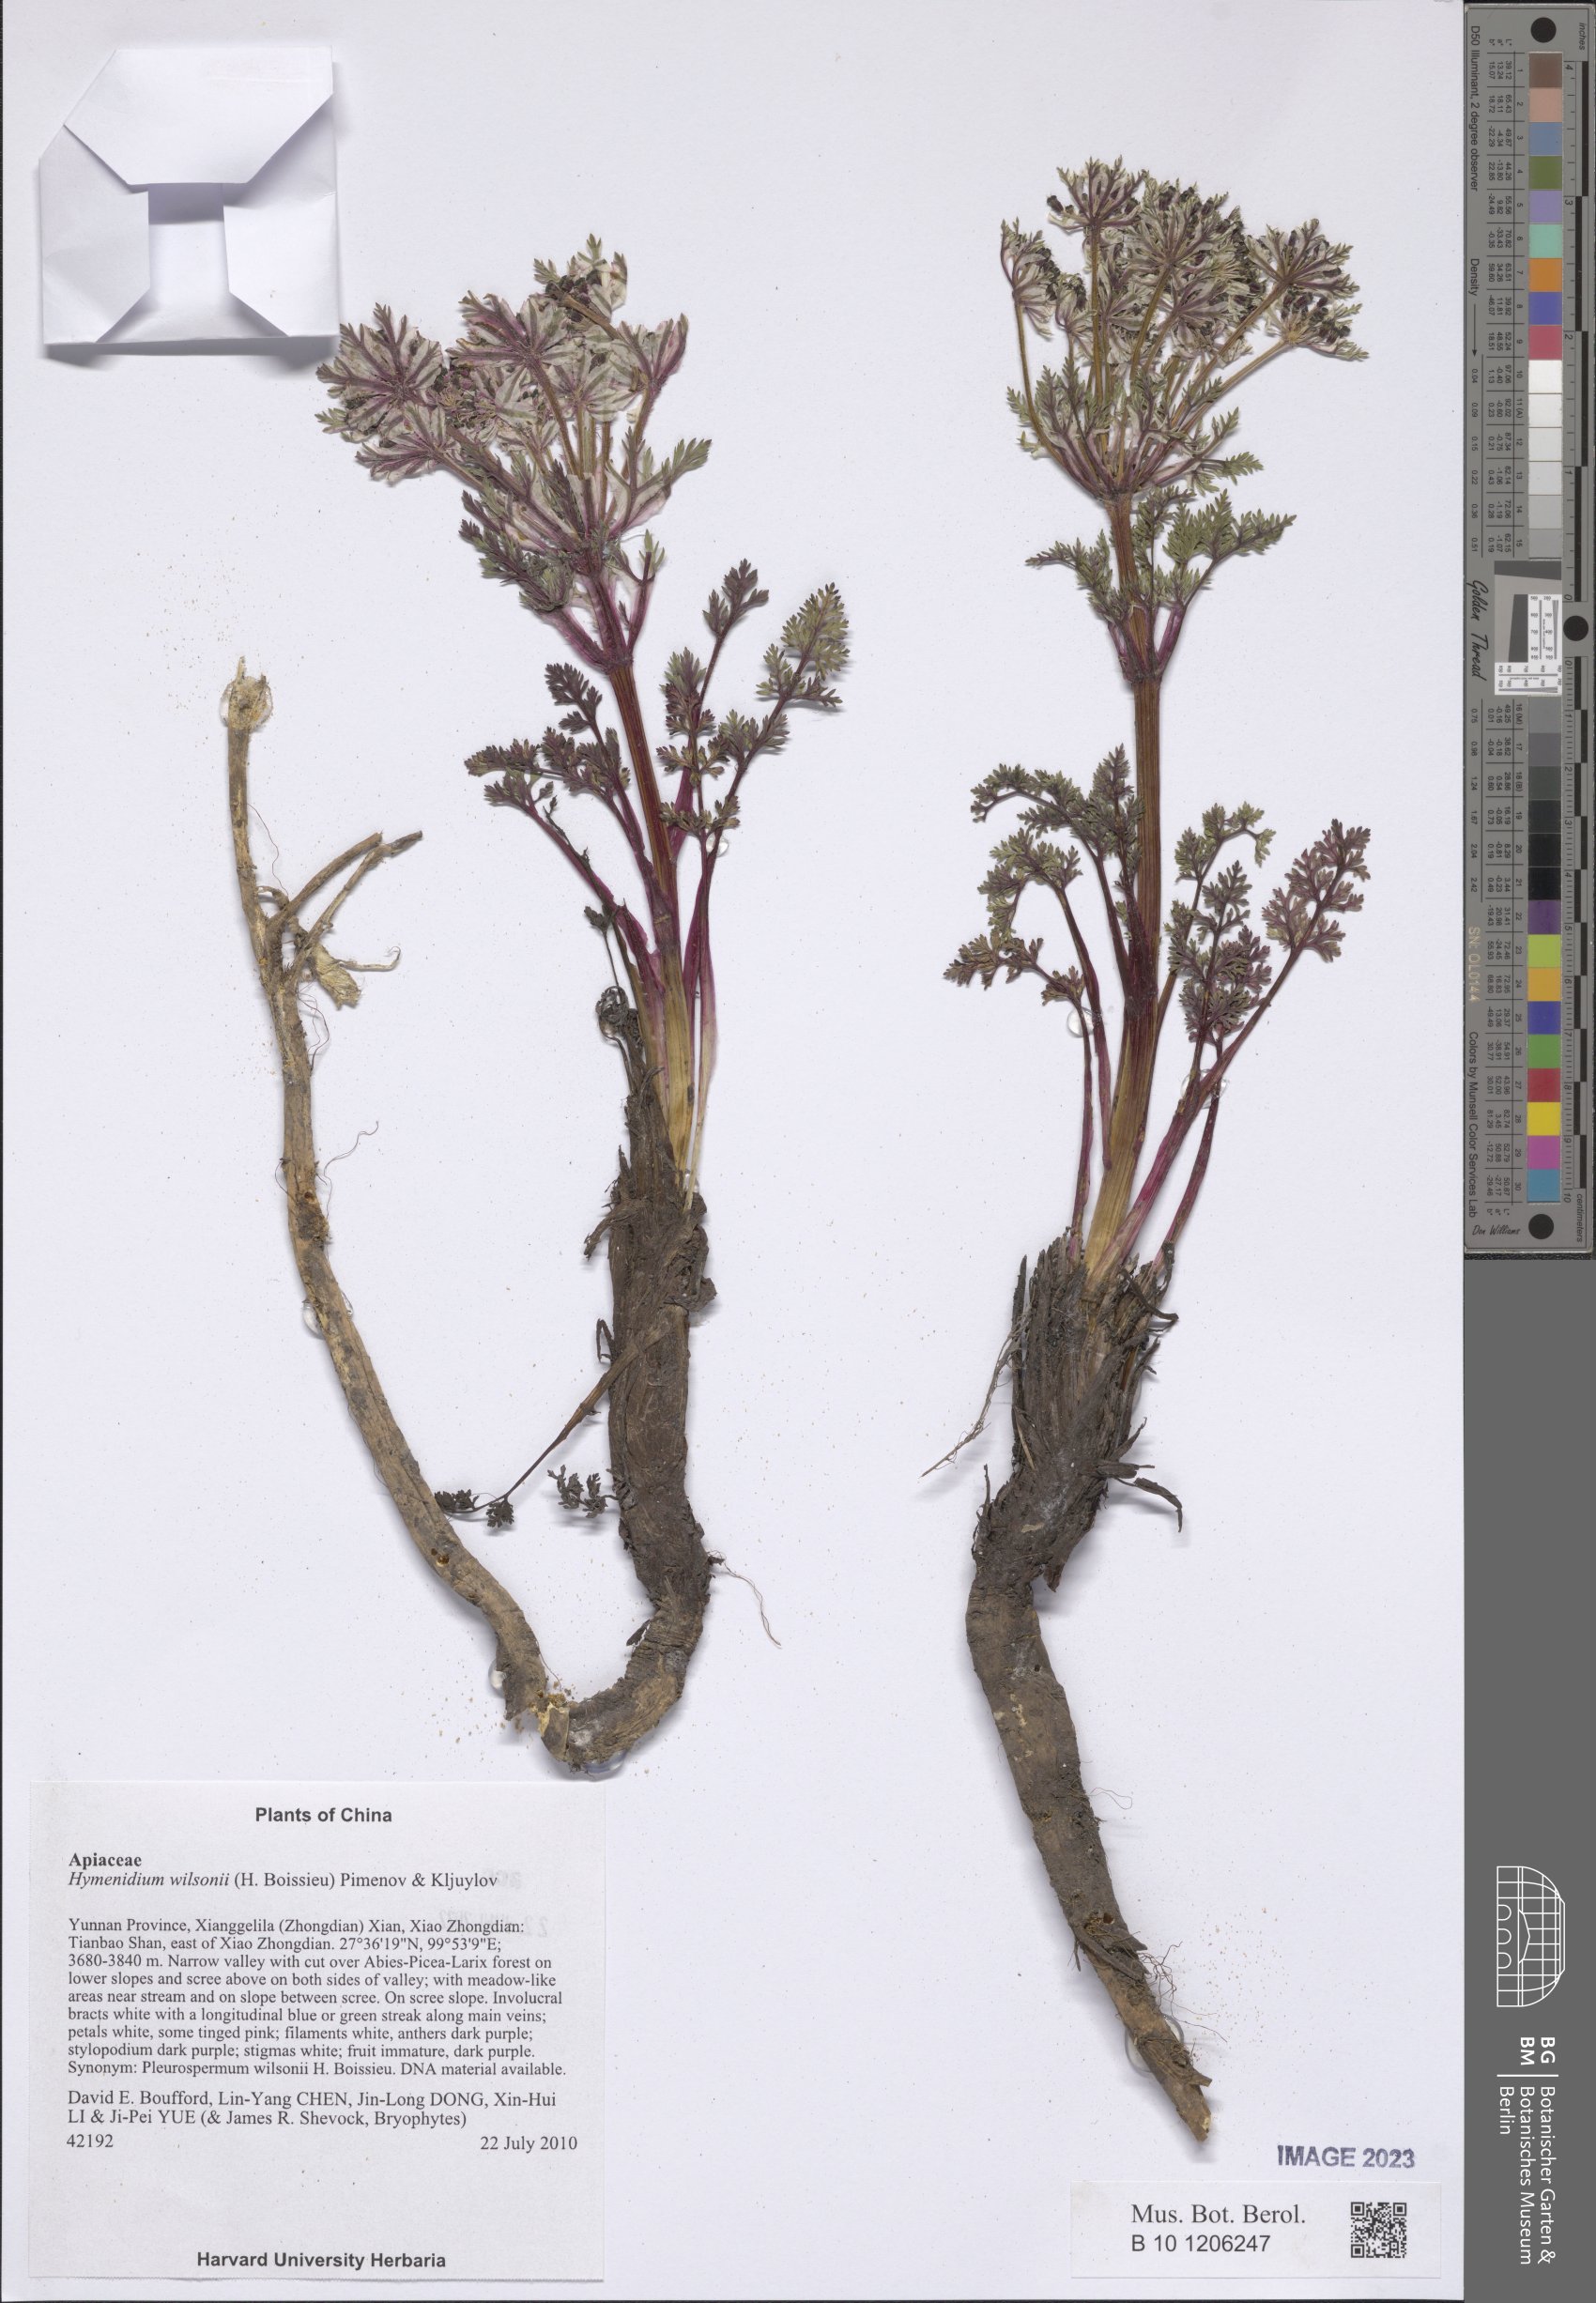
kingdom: Plantae
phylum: Tracheophyta
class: Magnoliopsida
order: Apiales
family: Apiaceae
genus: Hymenidium
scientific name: Hymenidium wilsonii
